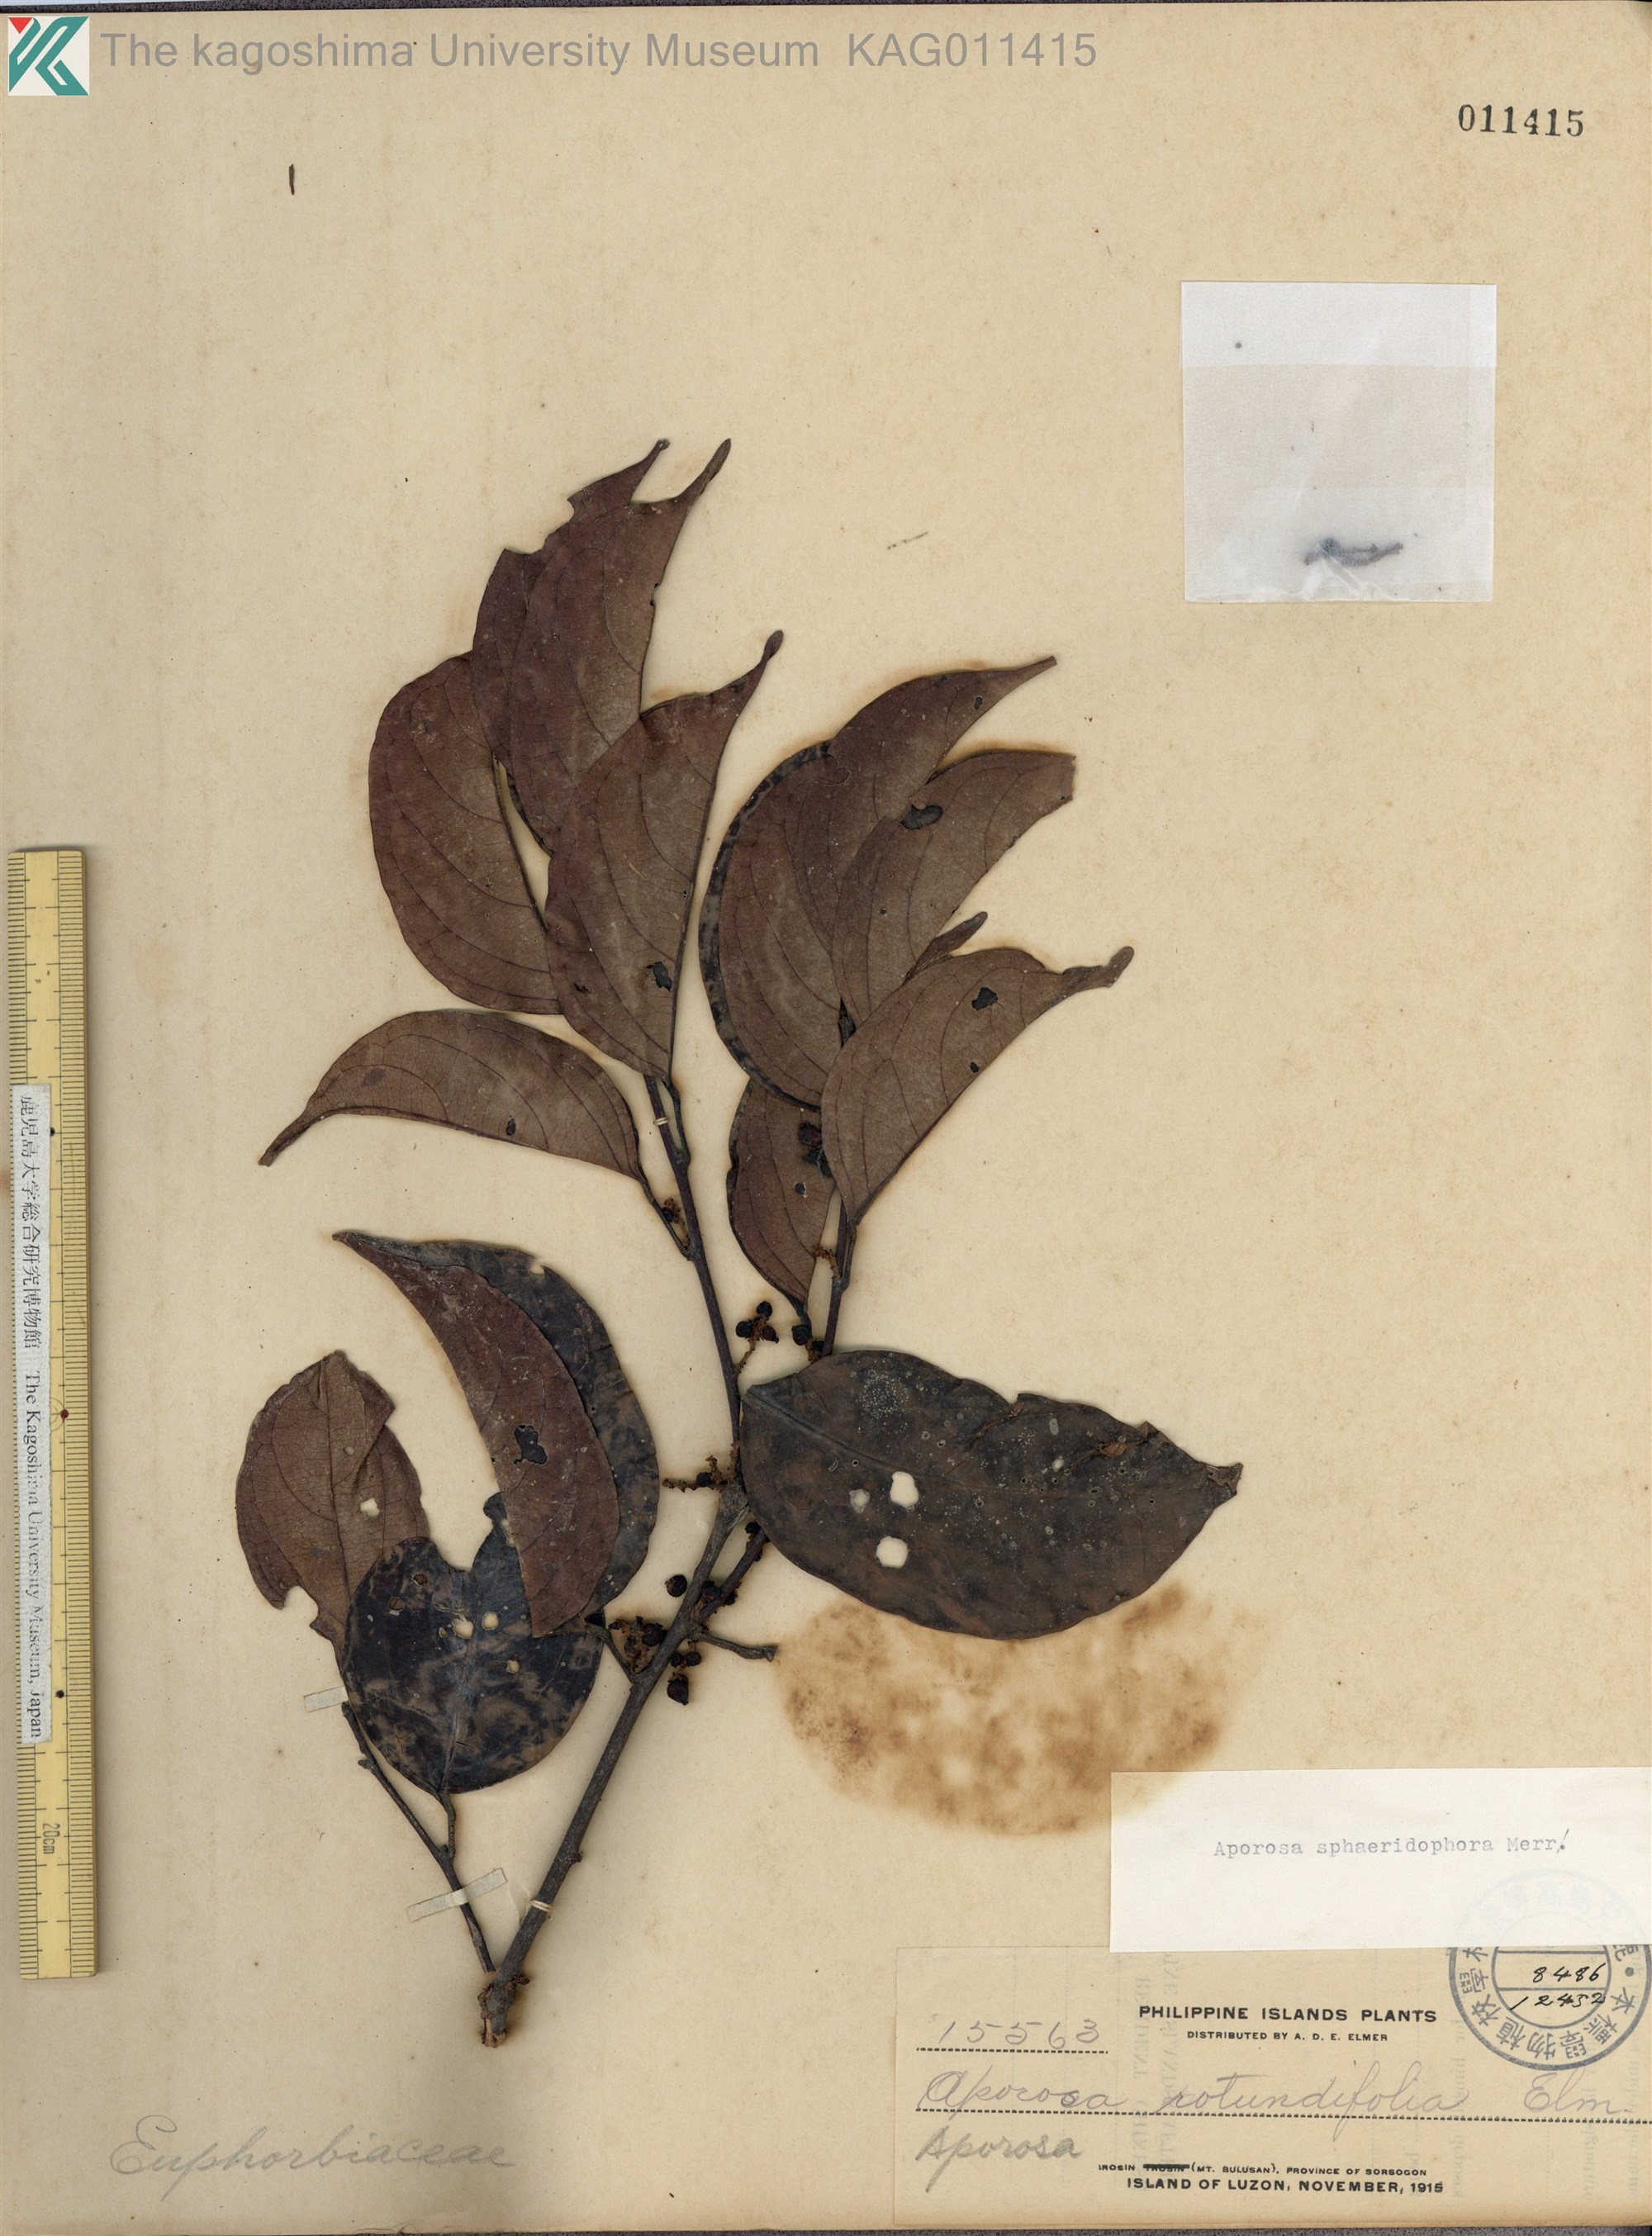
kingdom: Plantae
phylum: Tracheophyta
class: Magnoliopsida
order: Malpighiales
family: Phyllanthaceae
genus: Aporosa
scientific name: Aporosa
